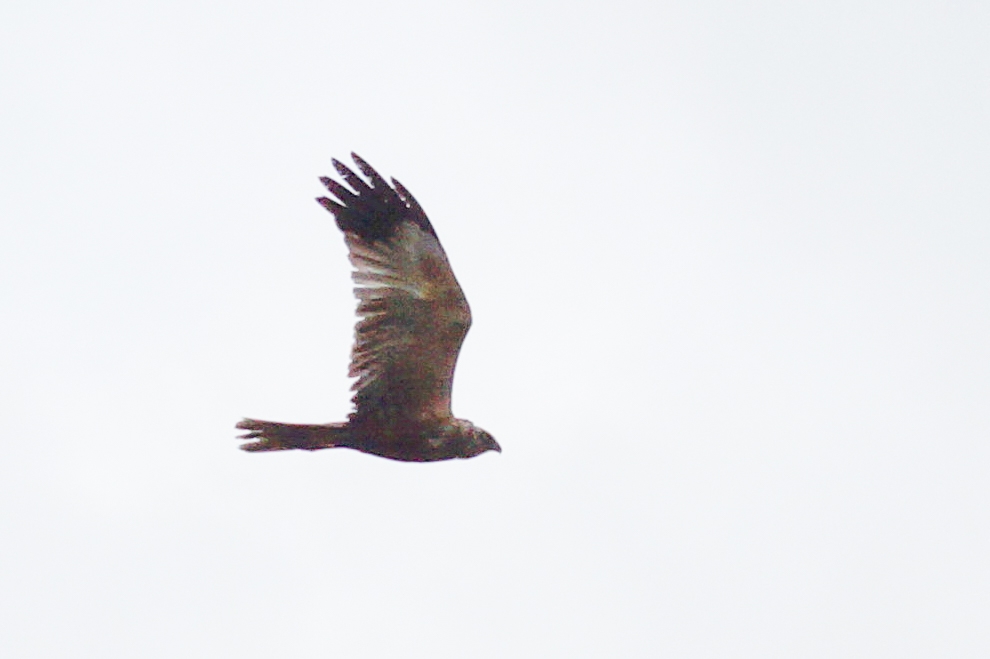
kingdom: Animalia
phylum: Chordata
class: Aves
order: Accipitriformes
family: Accipitridae
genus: Circus
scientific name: Circus aeruginosus
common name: Rørhøg
